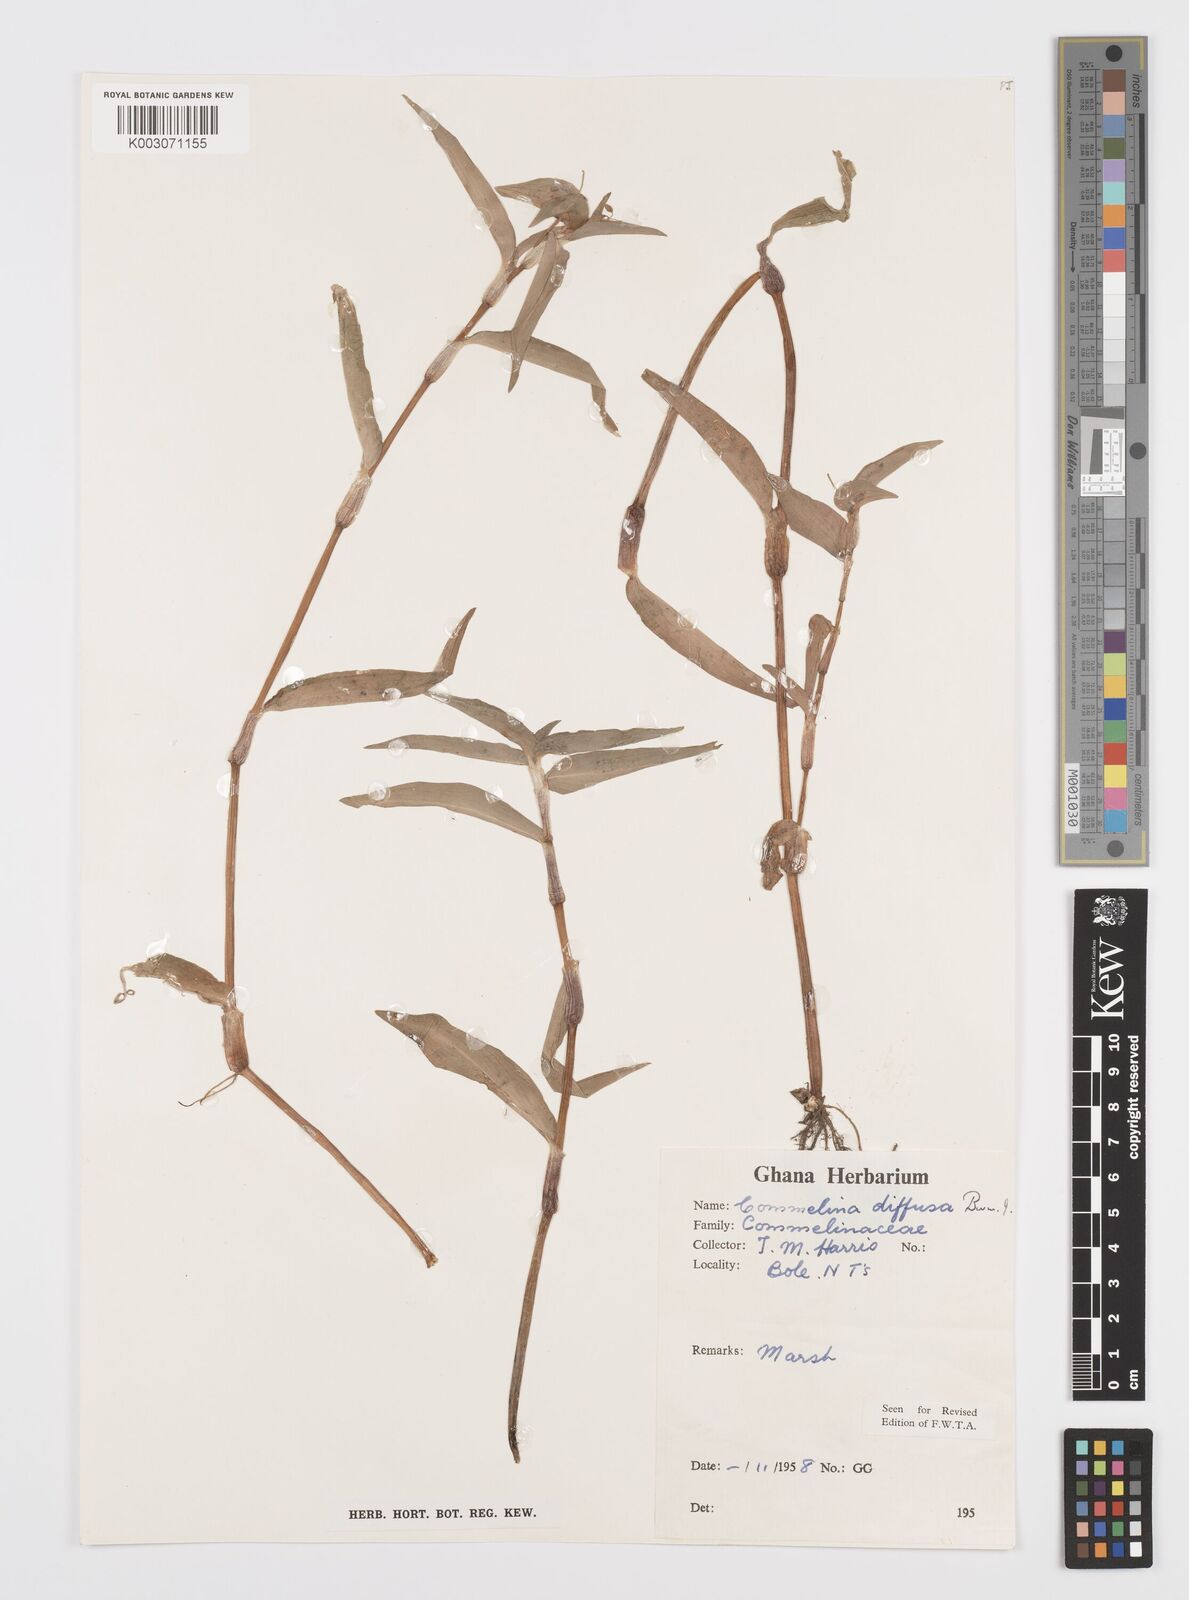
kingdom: Plantae
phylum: Tracheophyta
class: Liliopsida
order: Commelinales
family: Commelinaceae
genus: Commelina
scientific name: Commelina diffusa
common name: Climbing dayflower
